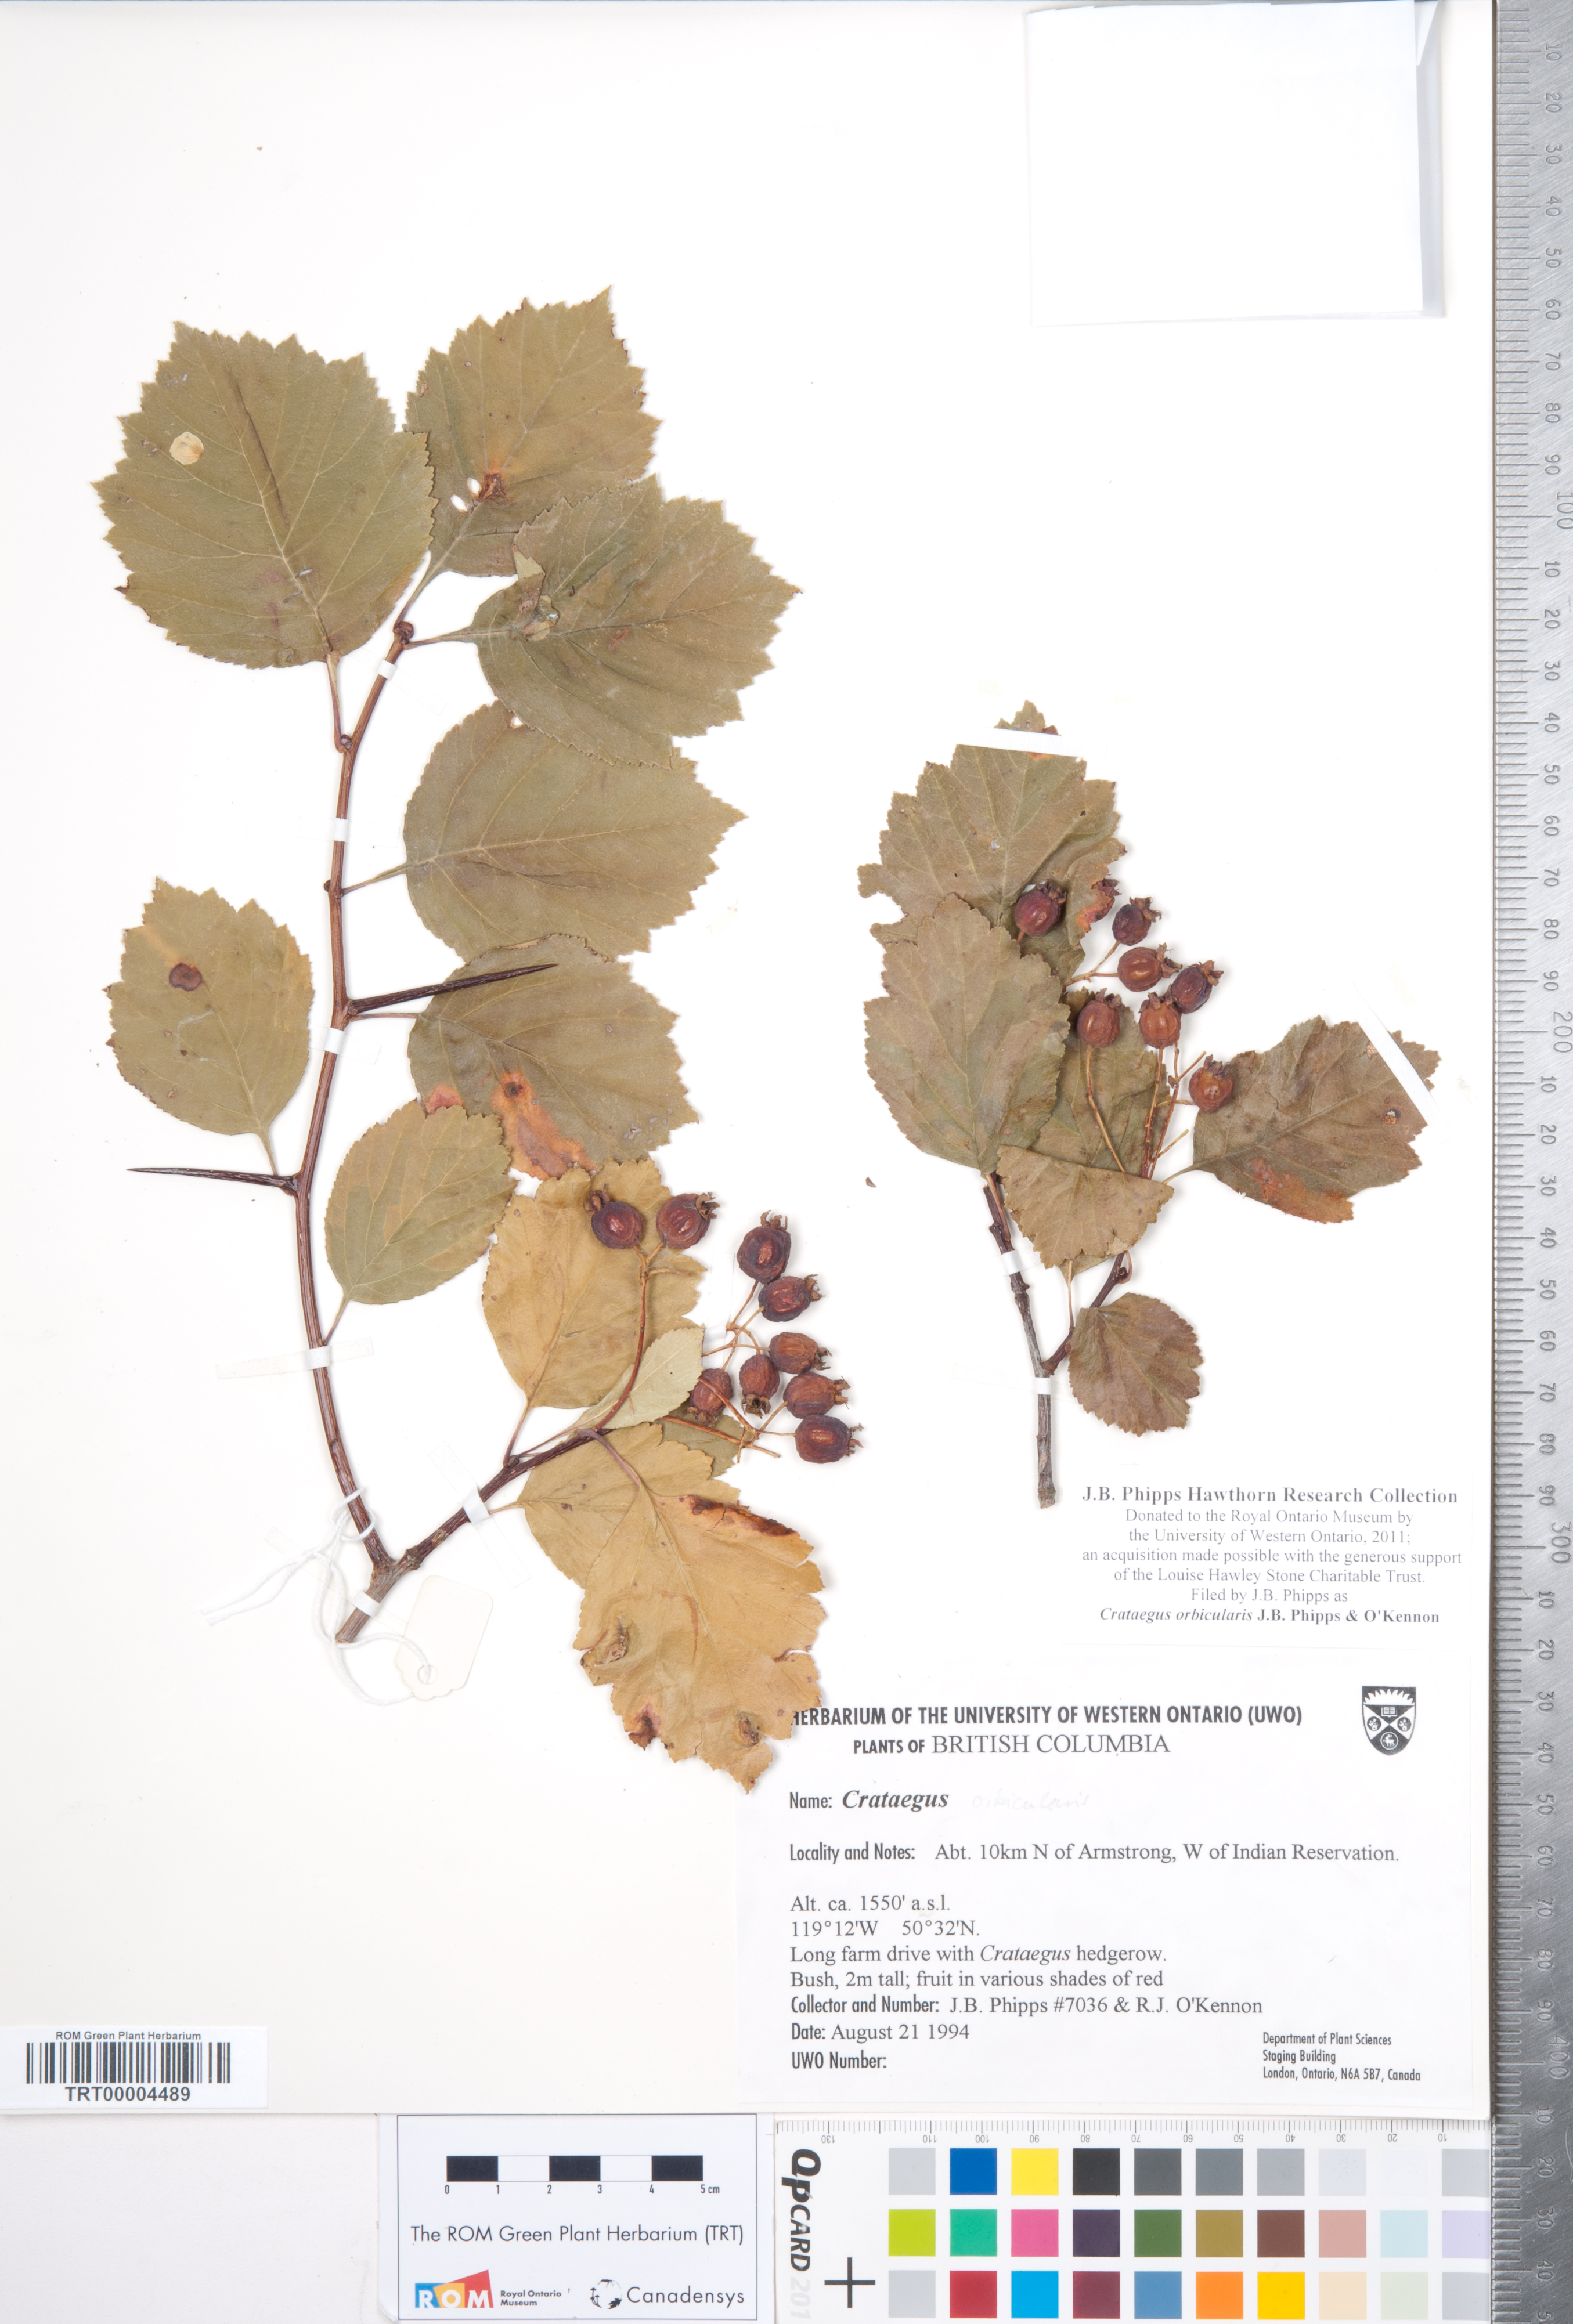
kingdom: Plantae
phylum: Tracheophyta
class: Magnoliopsida
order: Rosales
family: Rosaceae
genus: Crataegus
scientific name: Crataegus orbicularis
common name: Orbicular-leaved hawthorn
